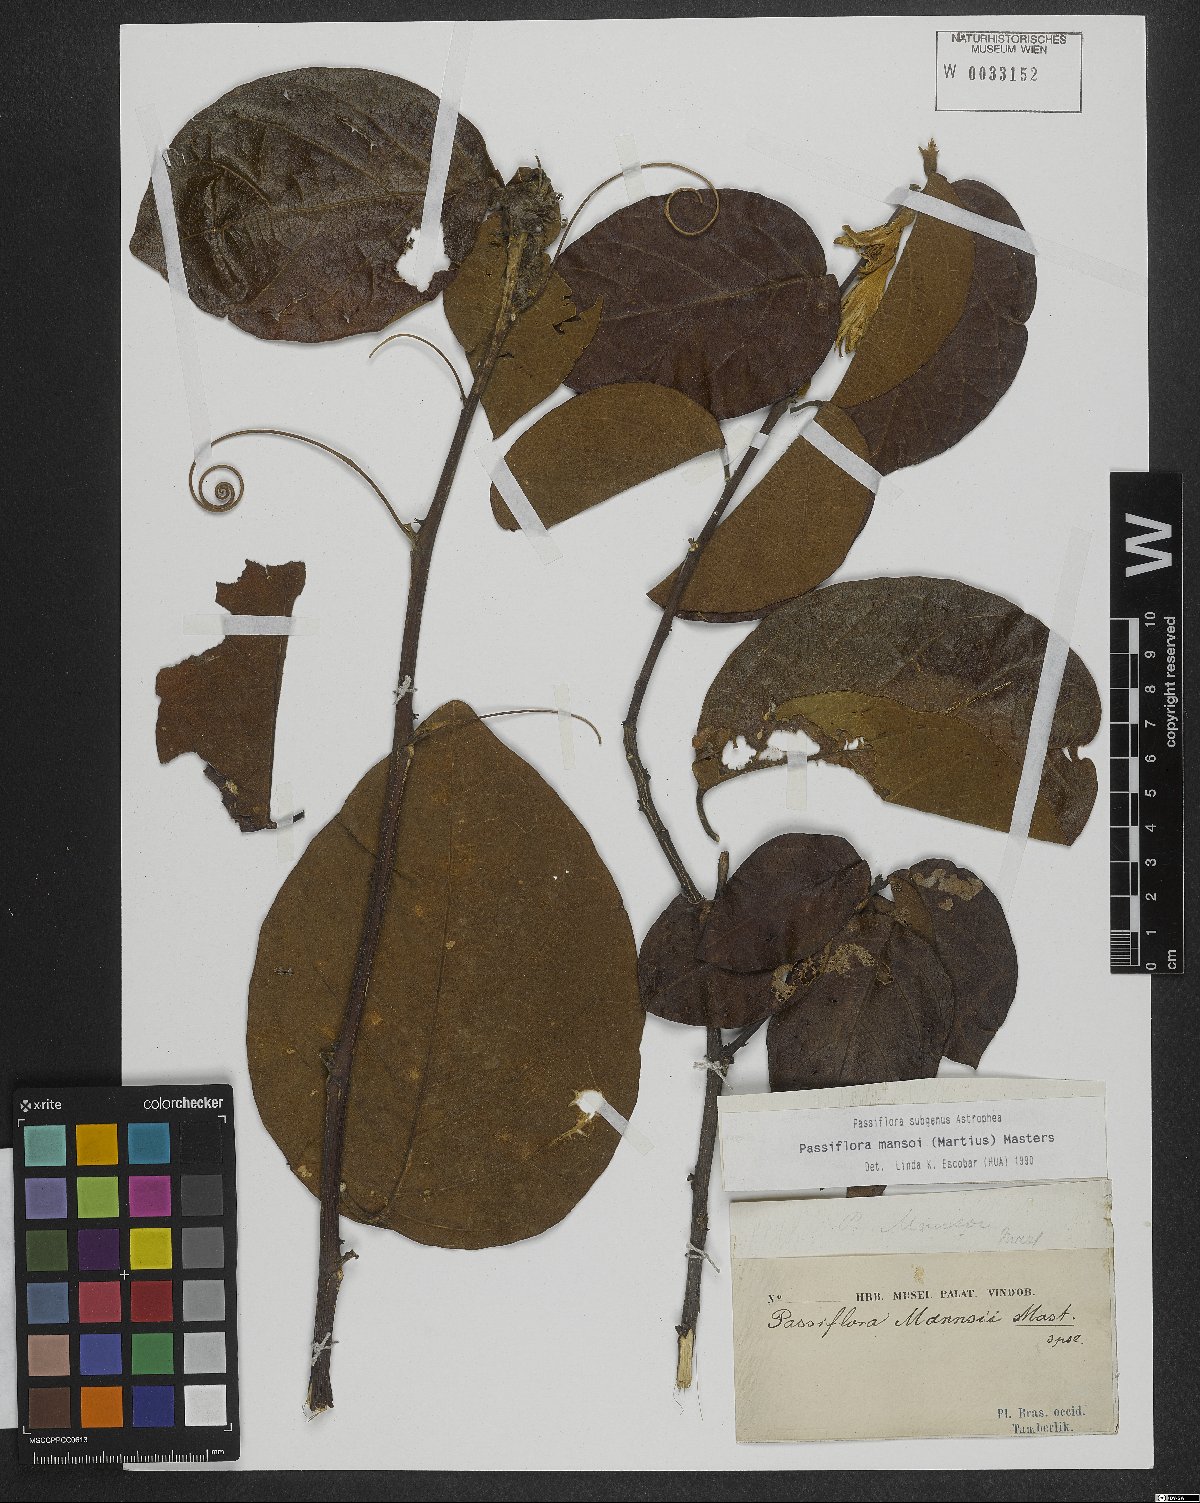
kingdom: Plantae
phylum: Tracheophyta
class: Magnoliopsida
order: Malpighiales
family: Passifloraceae
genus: Passiflora
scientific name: Passiflora mansoi
